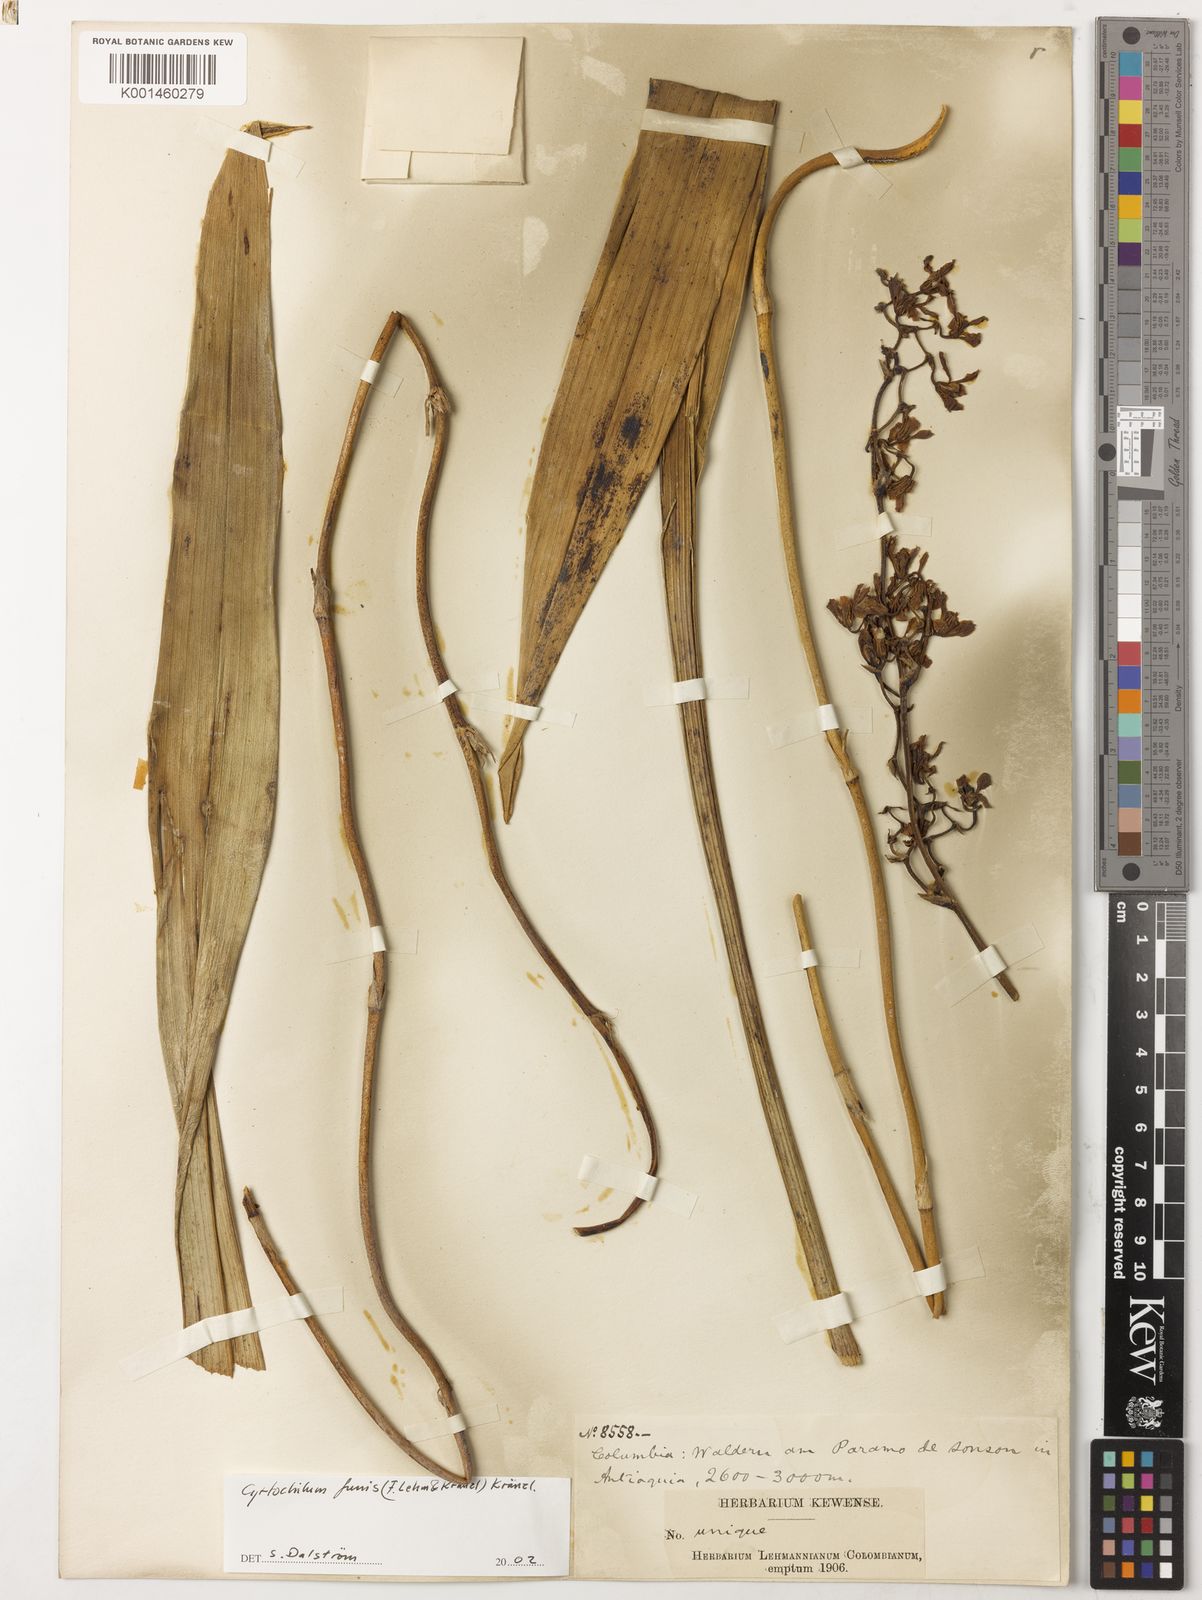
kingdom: Plantae
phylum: Tracheophyta
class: Liliopsida
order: Asparagales
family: Orchidaceae
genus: Cyrtochilum
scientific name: Cyrtochilum funis
